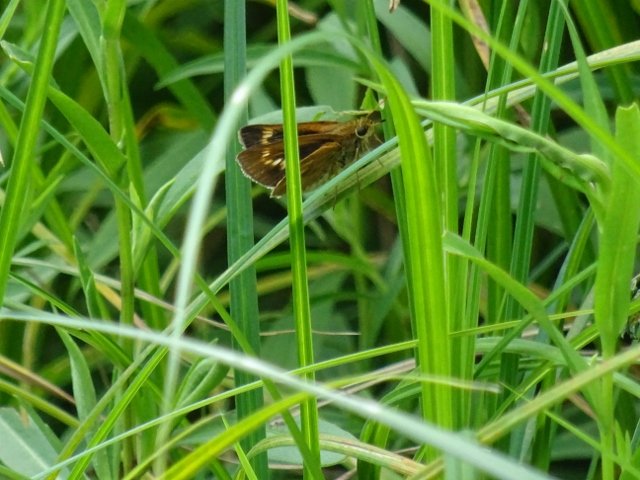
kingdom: Animalia
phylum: Arthropoda
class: Insecta
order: Lepidoptera
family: Hesperiidae
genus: Euphyes
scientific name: Euphyes conspicua
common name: Black Dash
